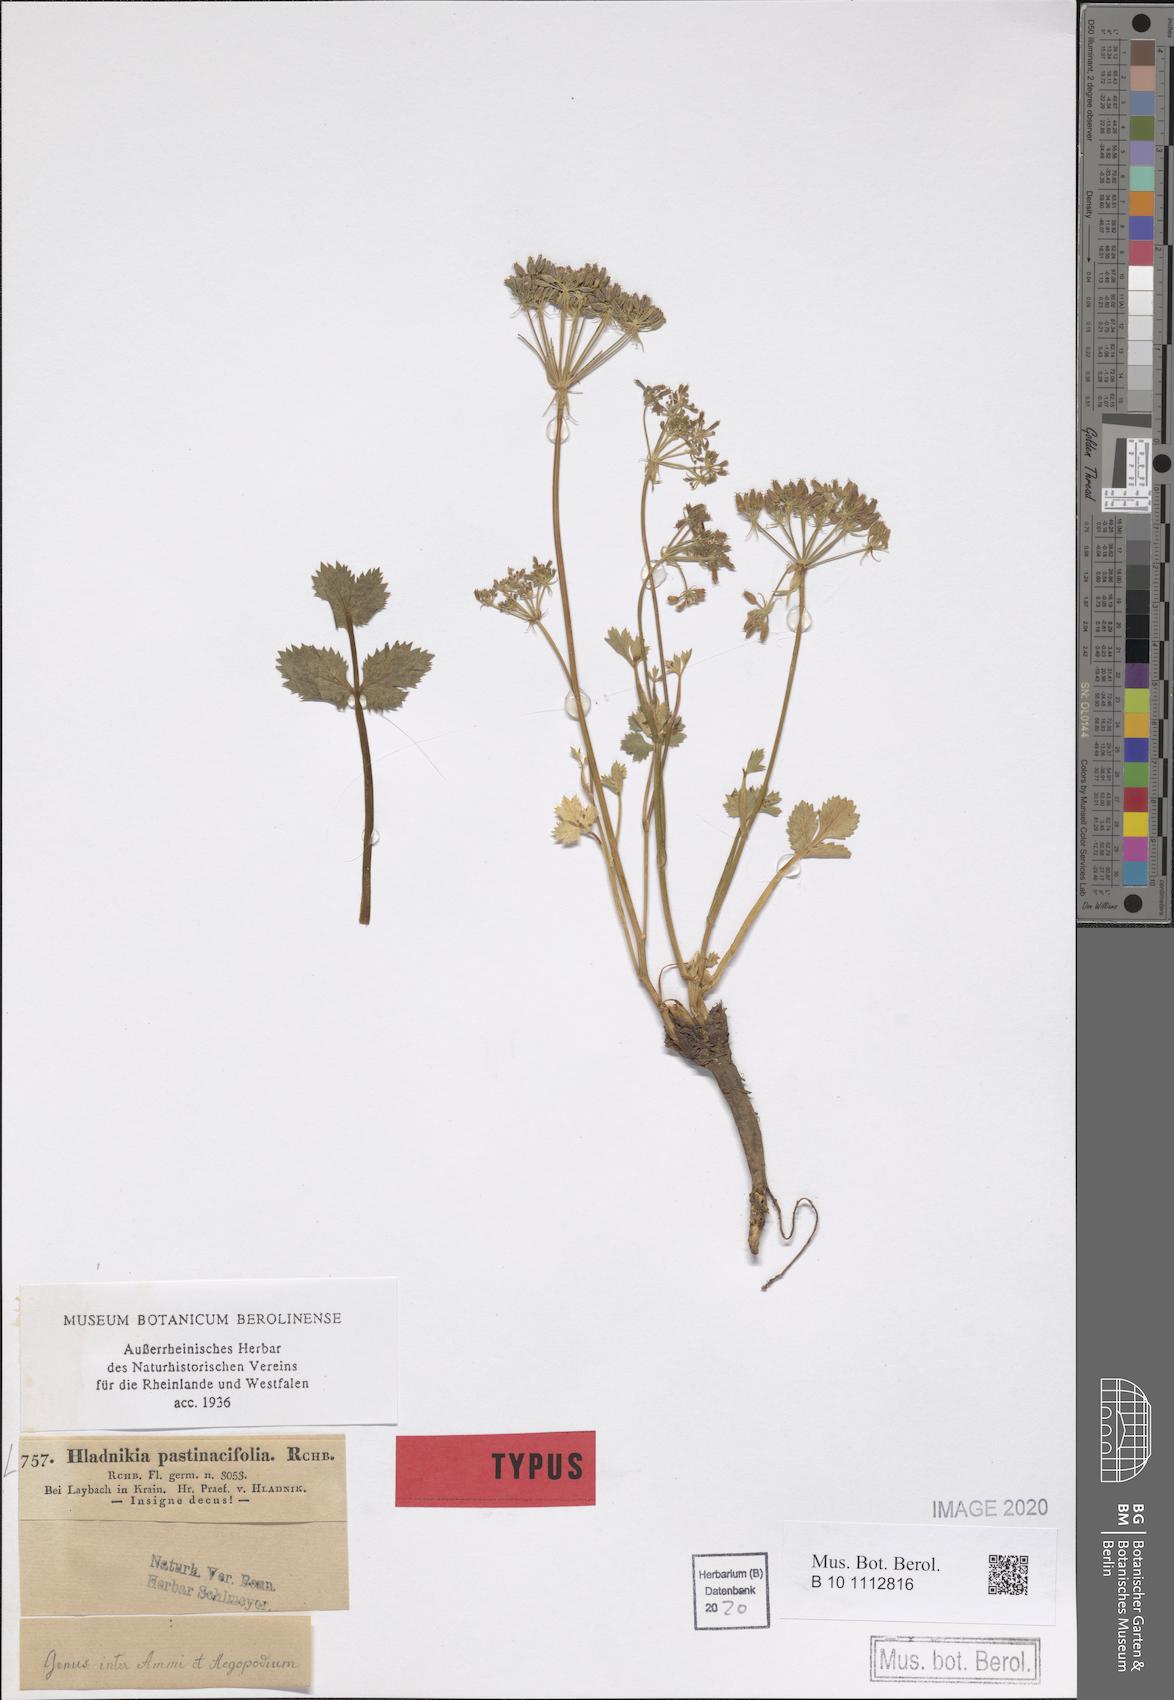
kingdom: Plantae
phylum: Tracheophyta
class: Magnoliopsida
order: Apiales
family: Apiaceae
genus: Hladnikia
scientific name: Hladnikia pastinacifolia
